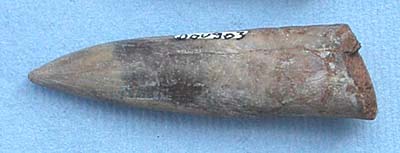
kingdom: Animalia
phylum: Mollusca
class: Cephalopoda
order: Belemnitida
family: Megateuthididae
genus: Acrocoelites
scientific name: Acrocoelites
